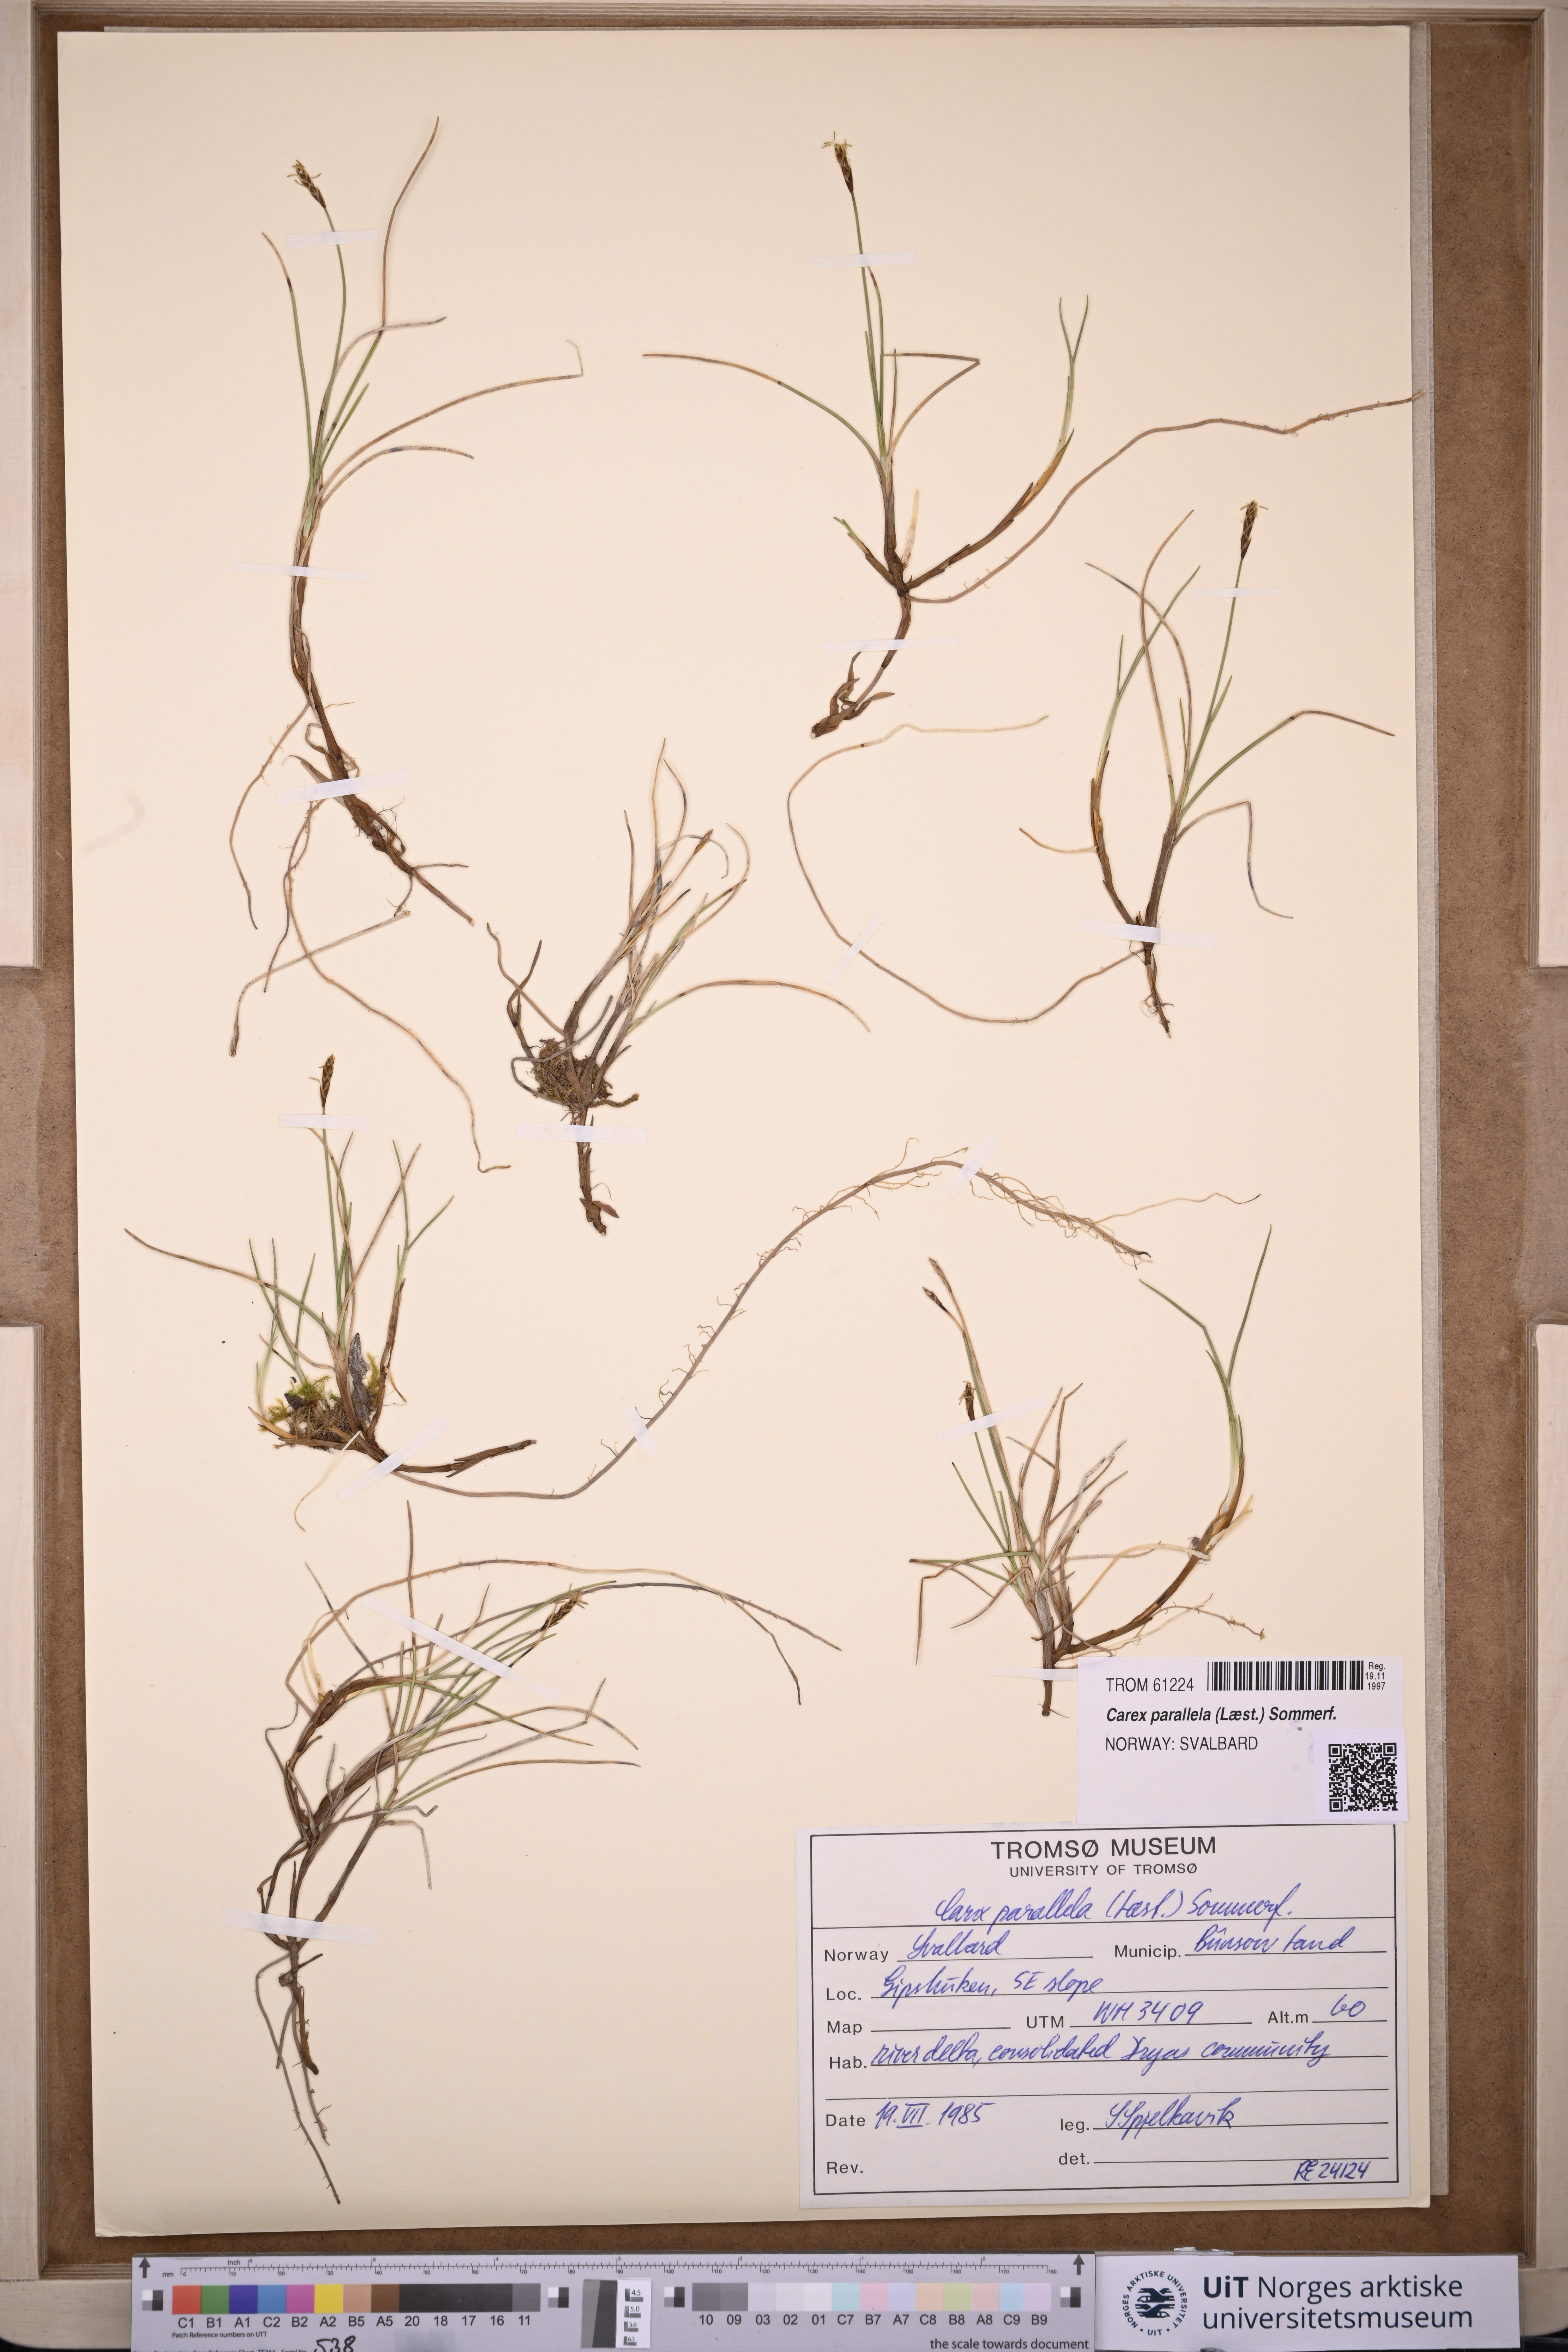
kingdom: Plantae
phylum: Tracheophyta
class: Liliopsida
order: Poales
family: Cyperaceae
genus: Carex
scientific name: Carex parallela
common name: Parallel sedge
